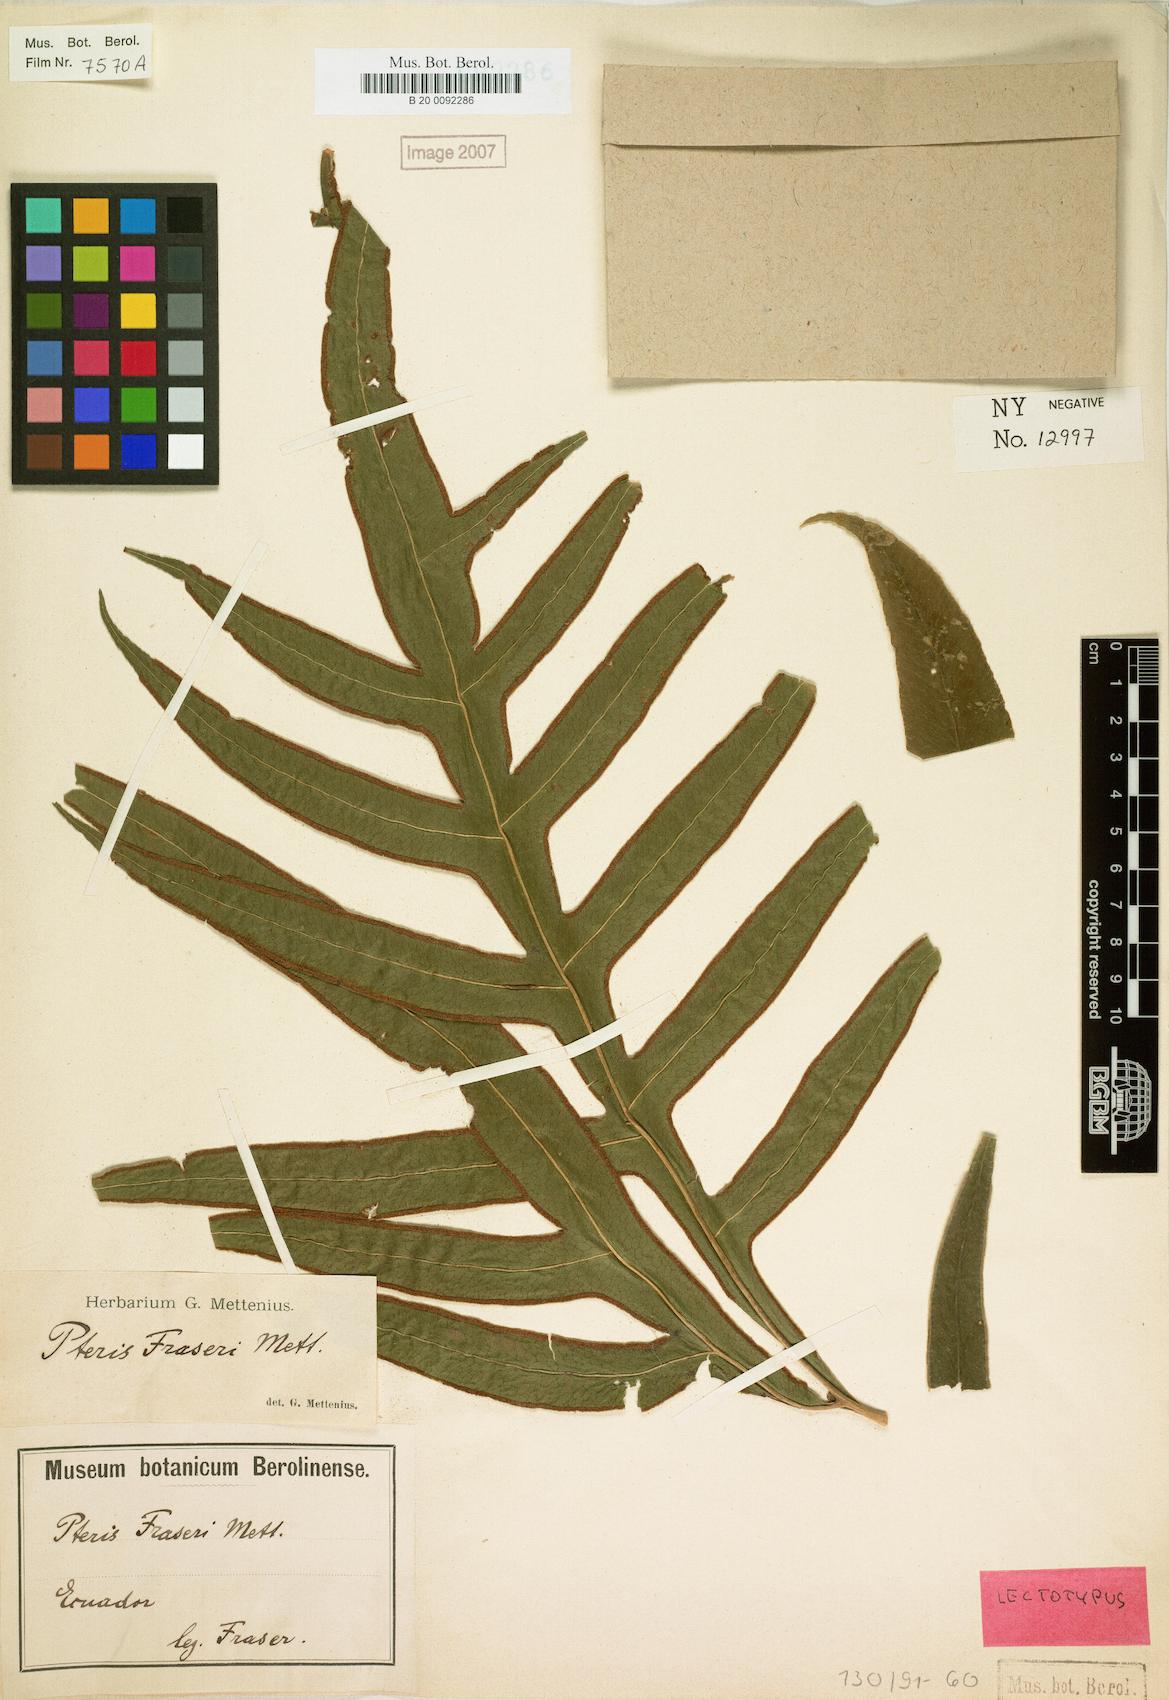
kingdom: Plantae
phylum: Tracheophyta
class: Polypodiopsida
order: Polypodiales
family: Pteridaceae
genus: Pteris
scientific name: Pteris fraseri
